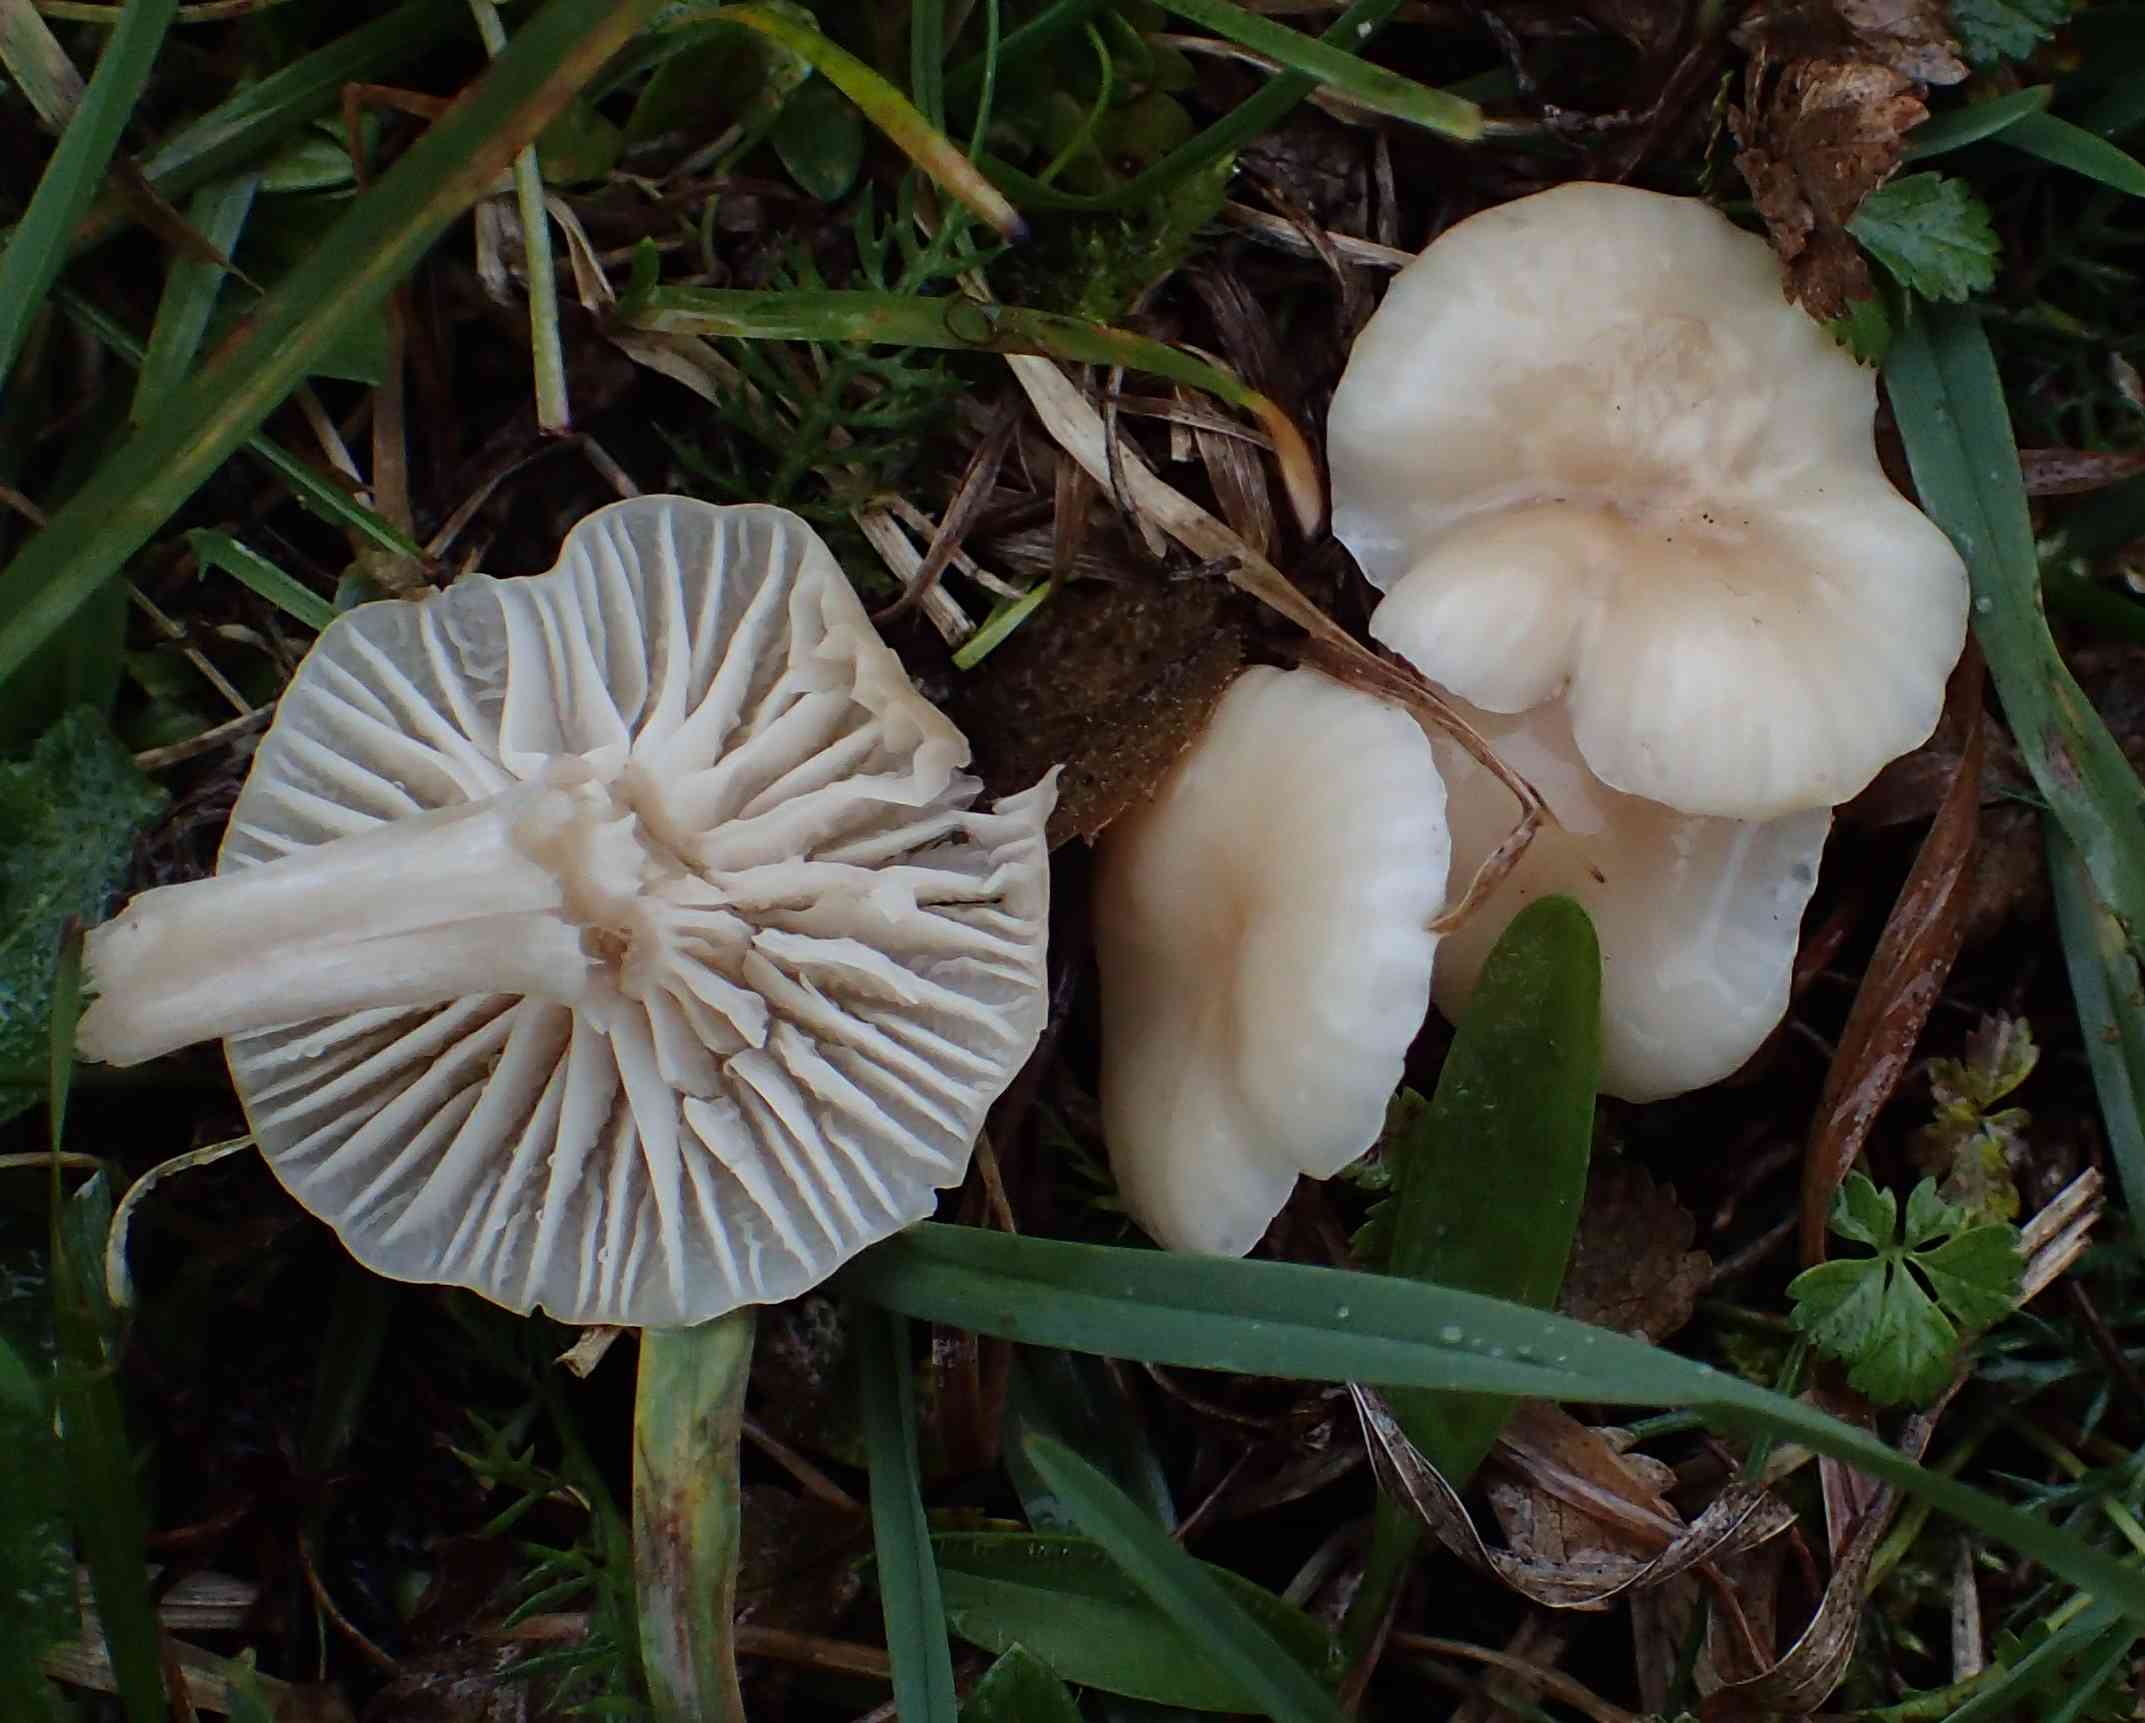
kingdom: Fungi
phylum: Basidiomycota
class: Agaricomycetes
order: Agaricales
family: Hygrophoraceae
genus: Cuphophyllus
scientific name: Cuphophyllus virgineus
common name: isabella-vokshat
